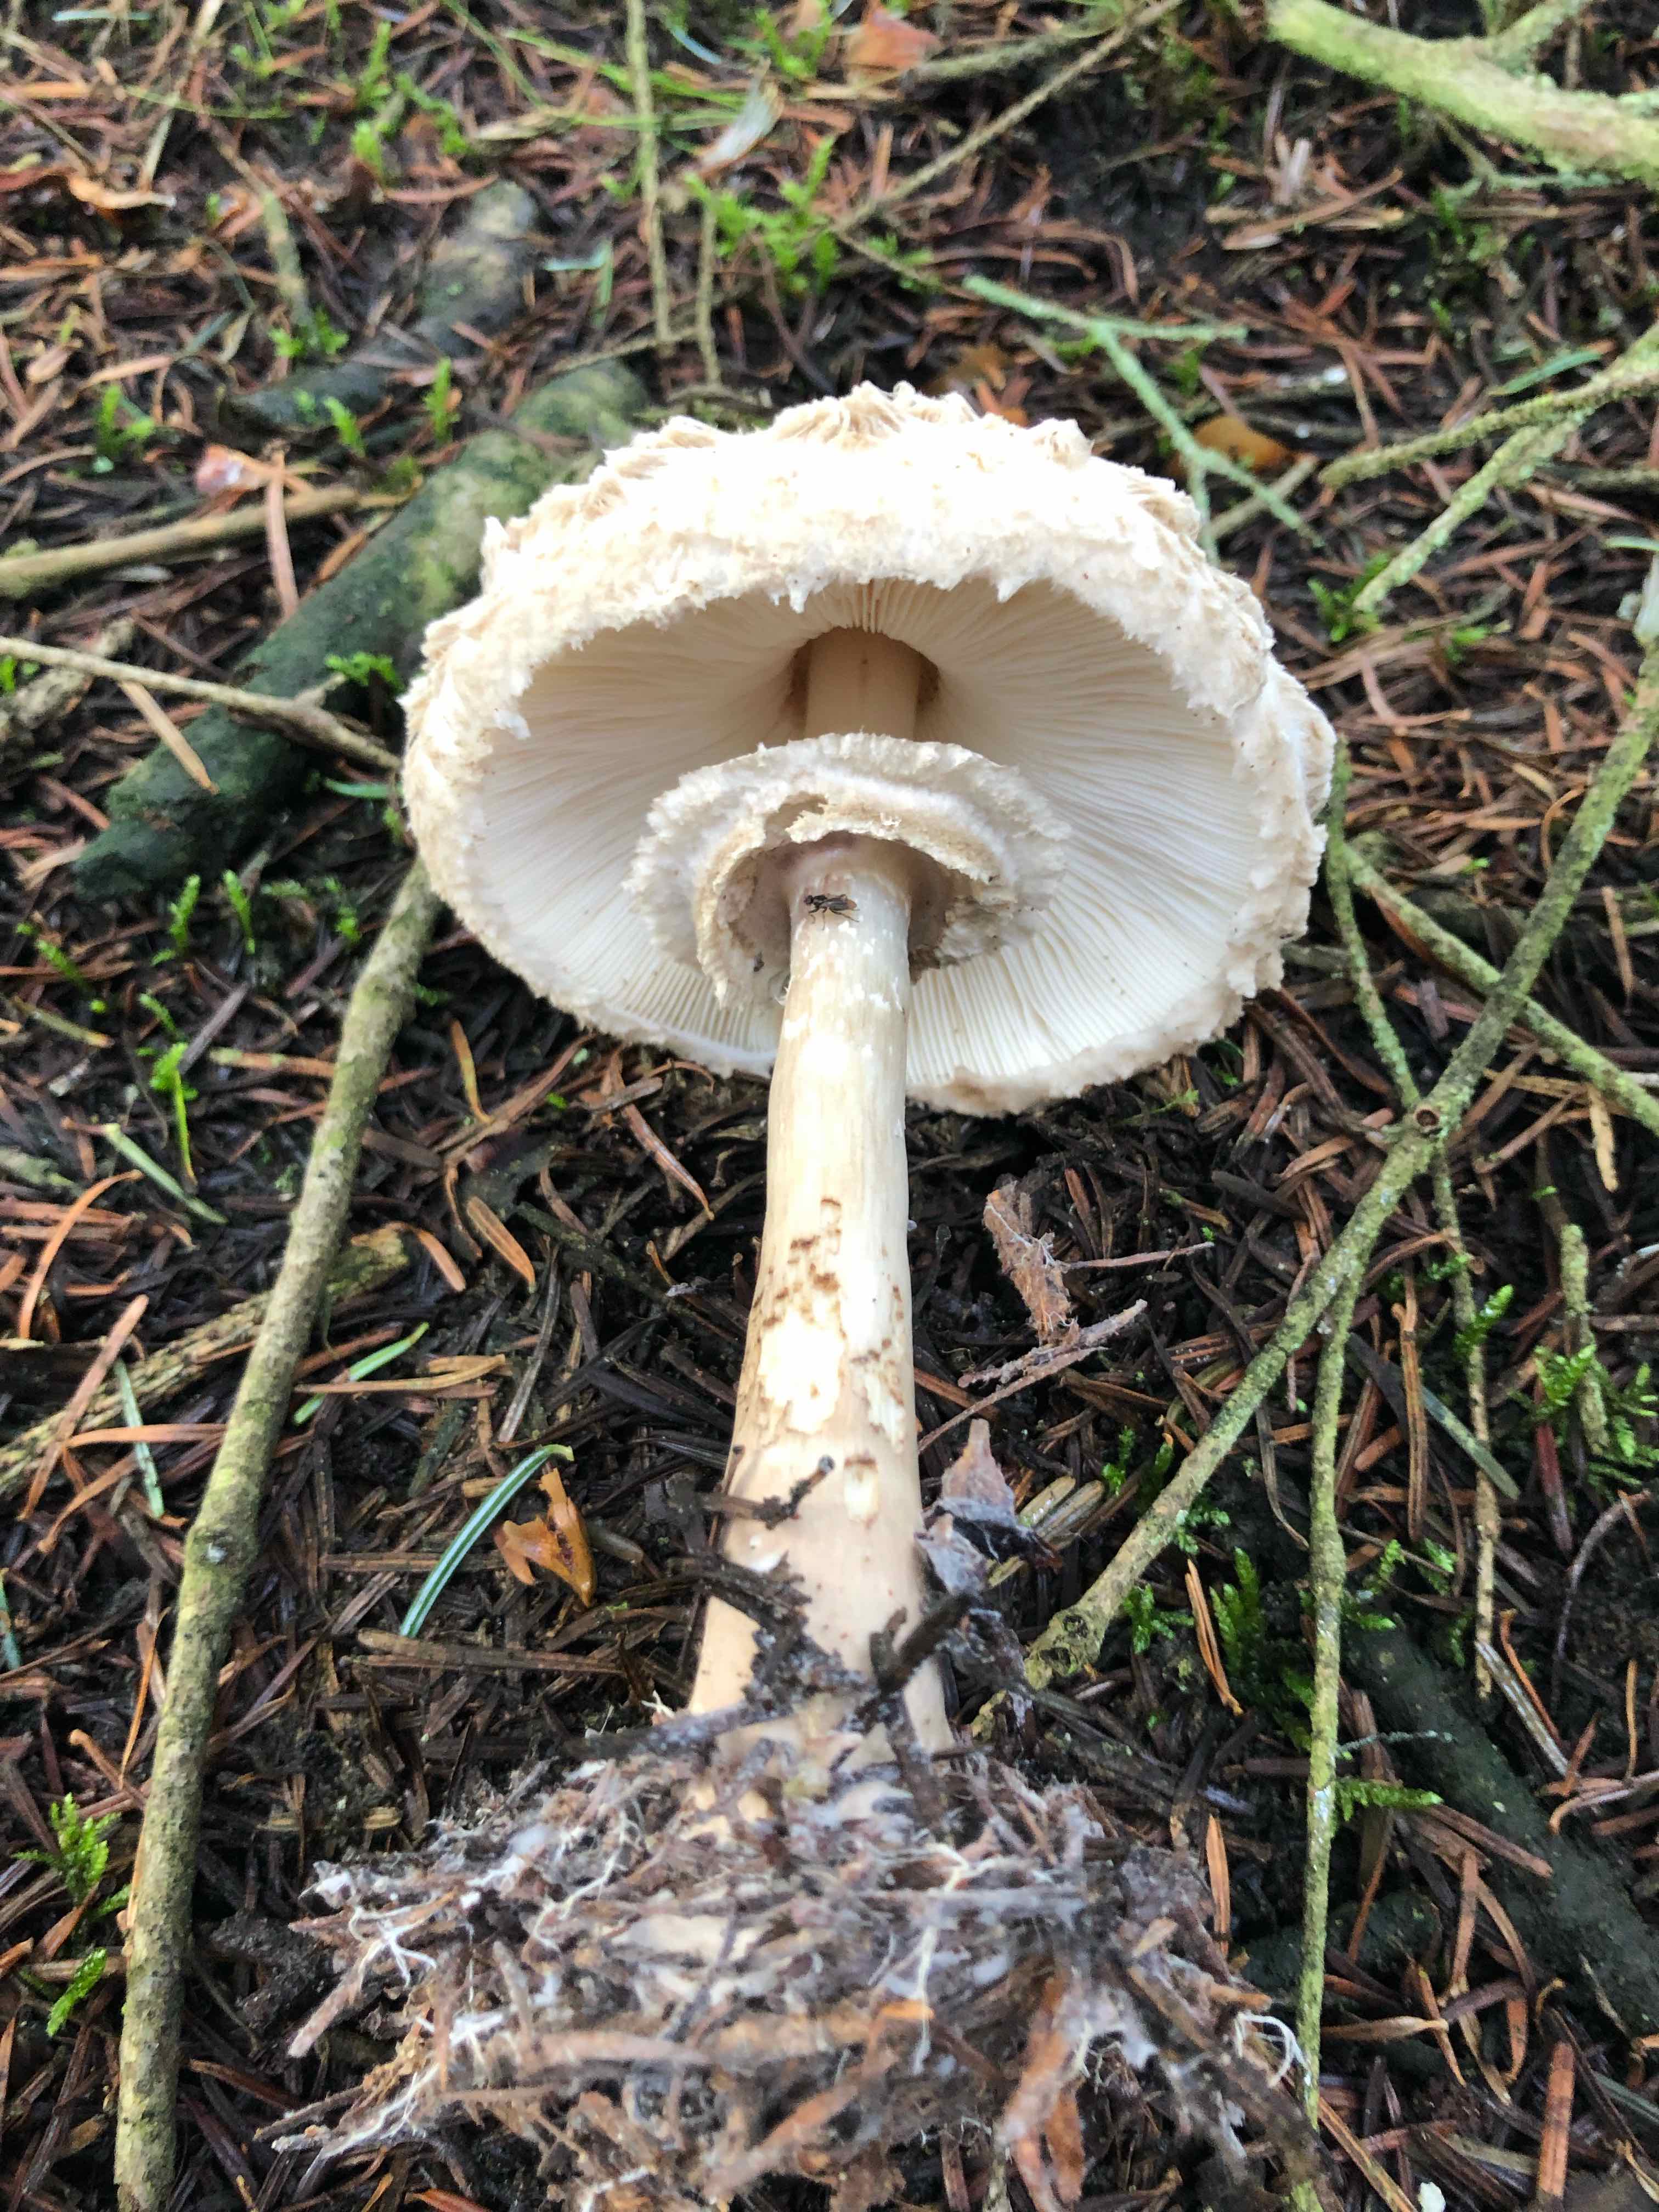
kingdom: Fungi
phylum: Basidiomycota
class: Agaricomycetes
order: Agaricales
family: Agaricaceae
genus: Chlorophyllum
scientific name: Chlorophyllum olivieri
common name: almindelig rabarberhat
